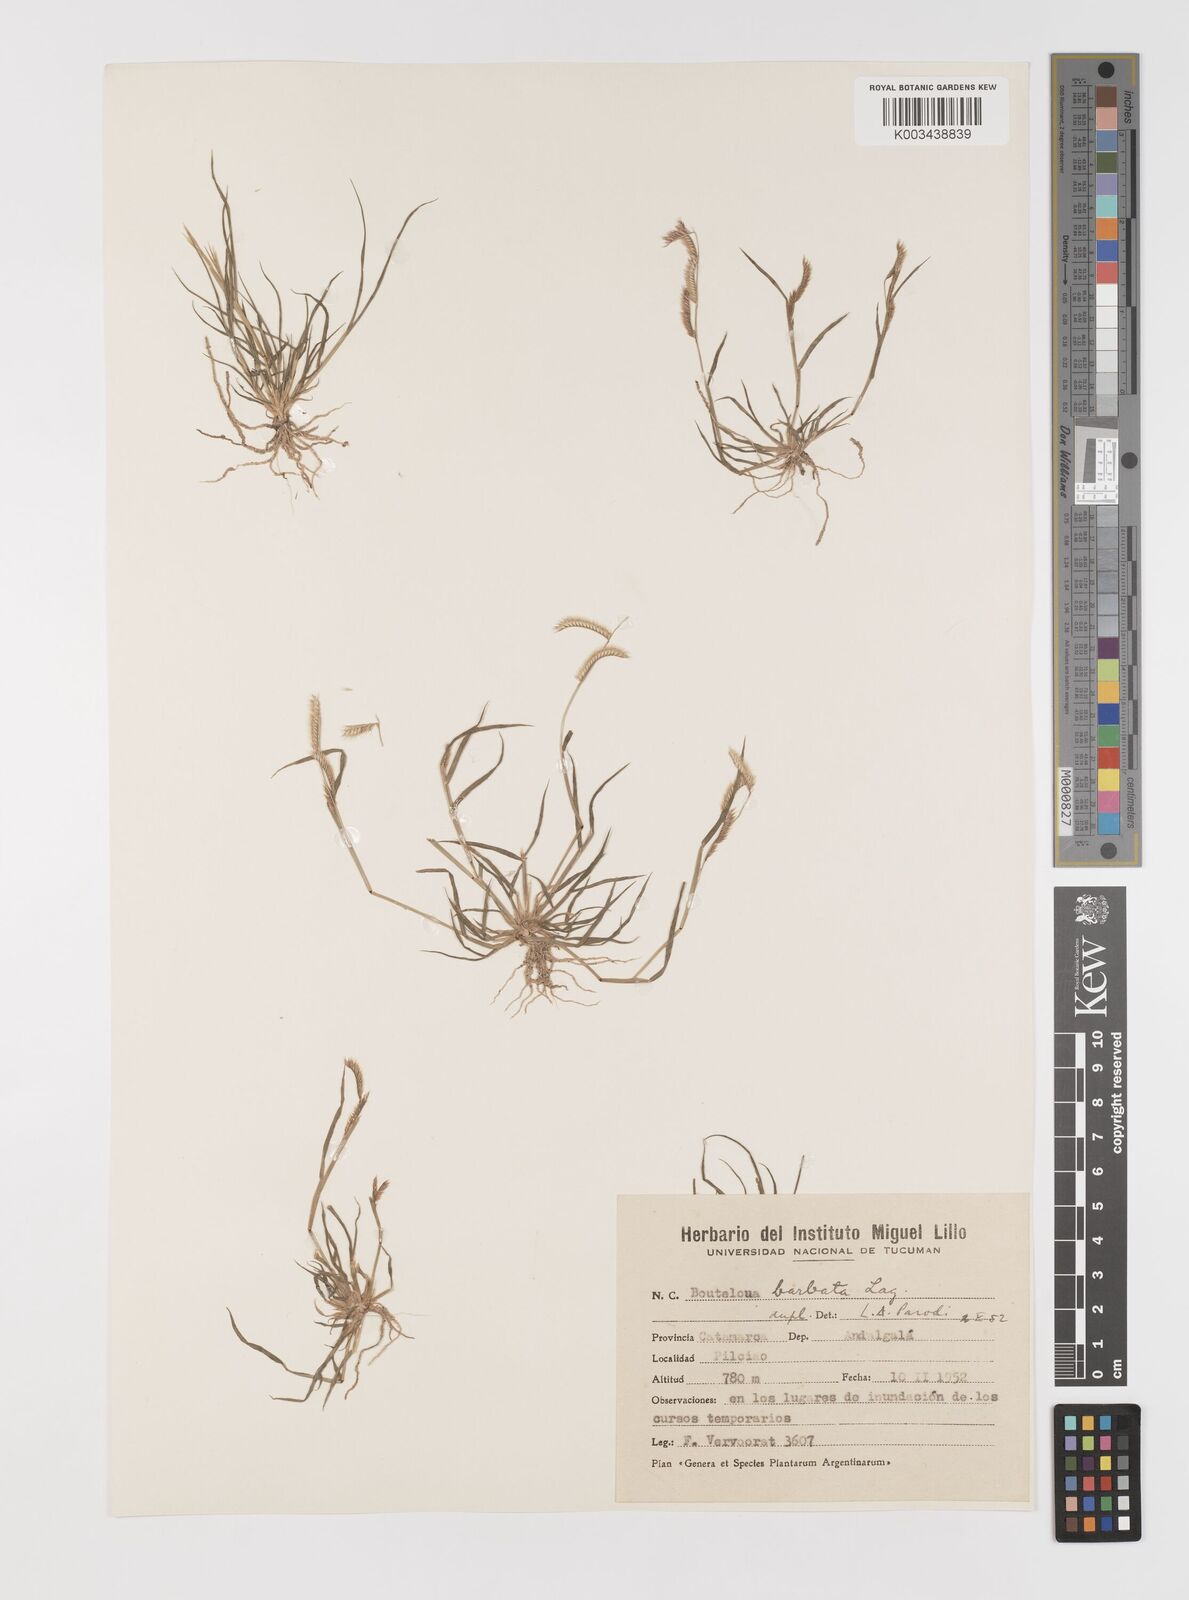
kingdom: Plantae
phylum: Tracheophyta
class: Liliopsida
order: Poales
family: Poaceae
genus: Bouteloua
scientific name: Bouteloua barbata
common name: Six-weeks grama
